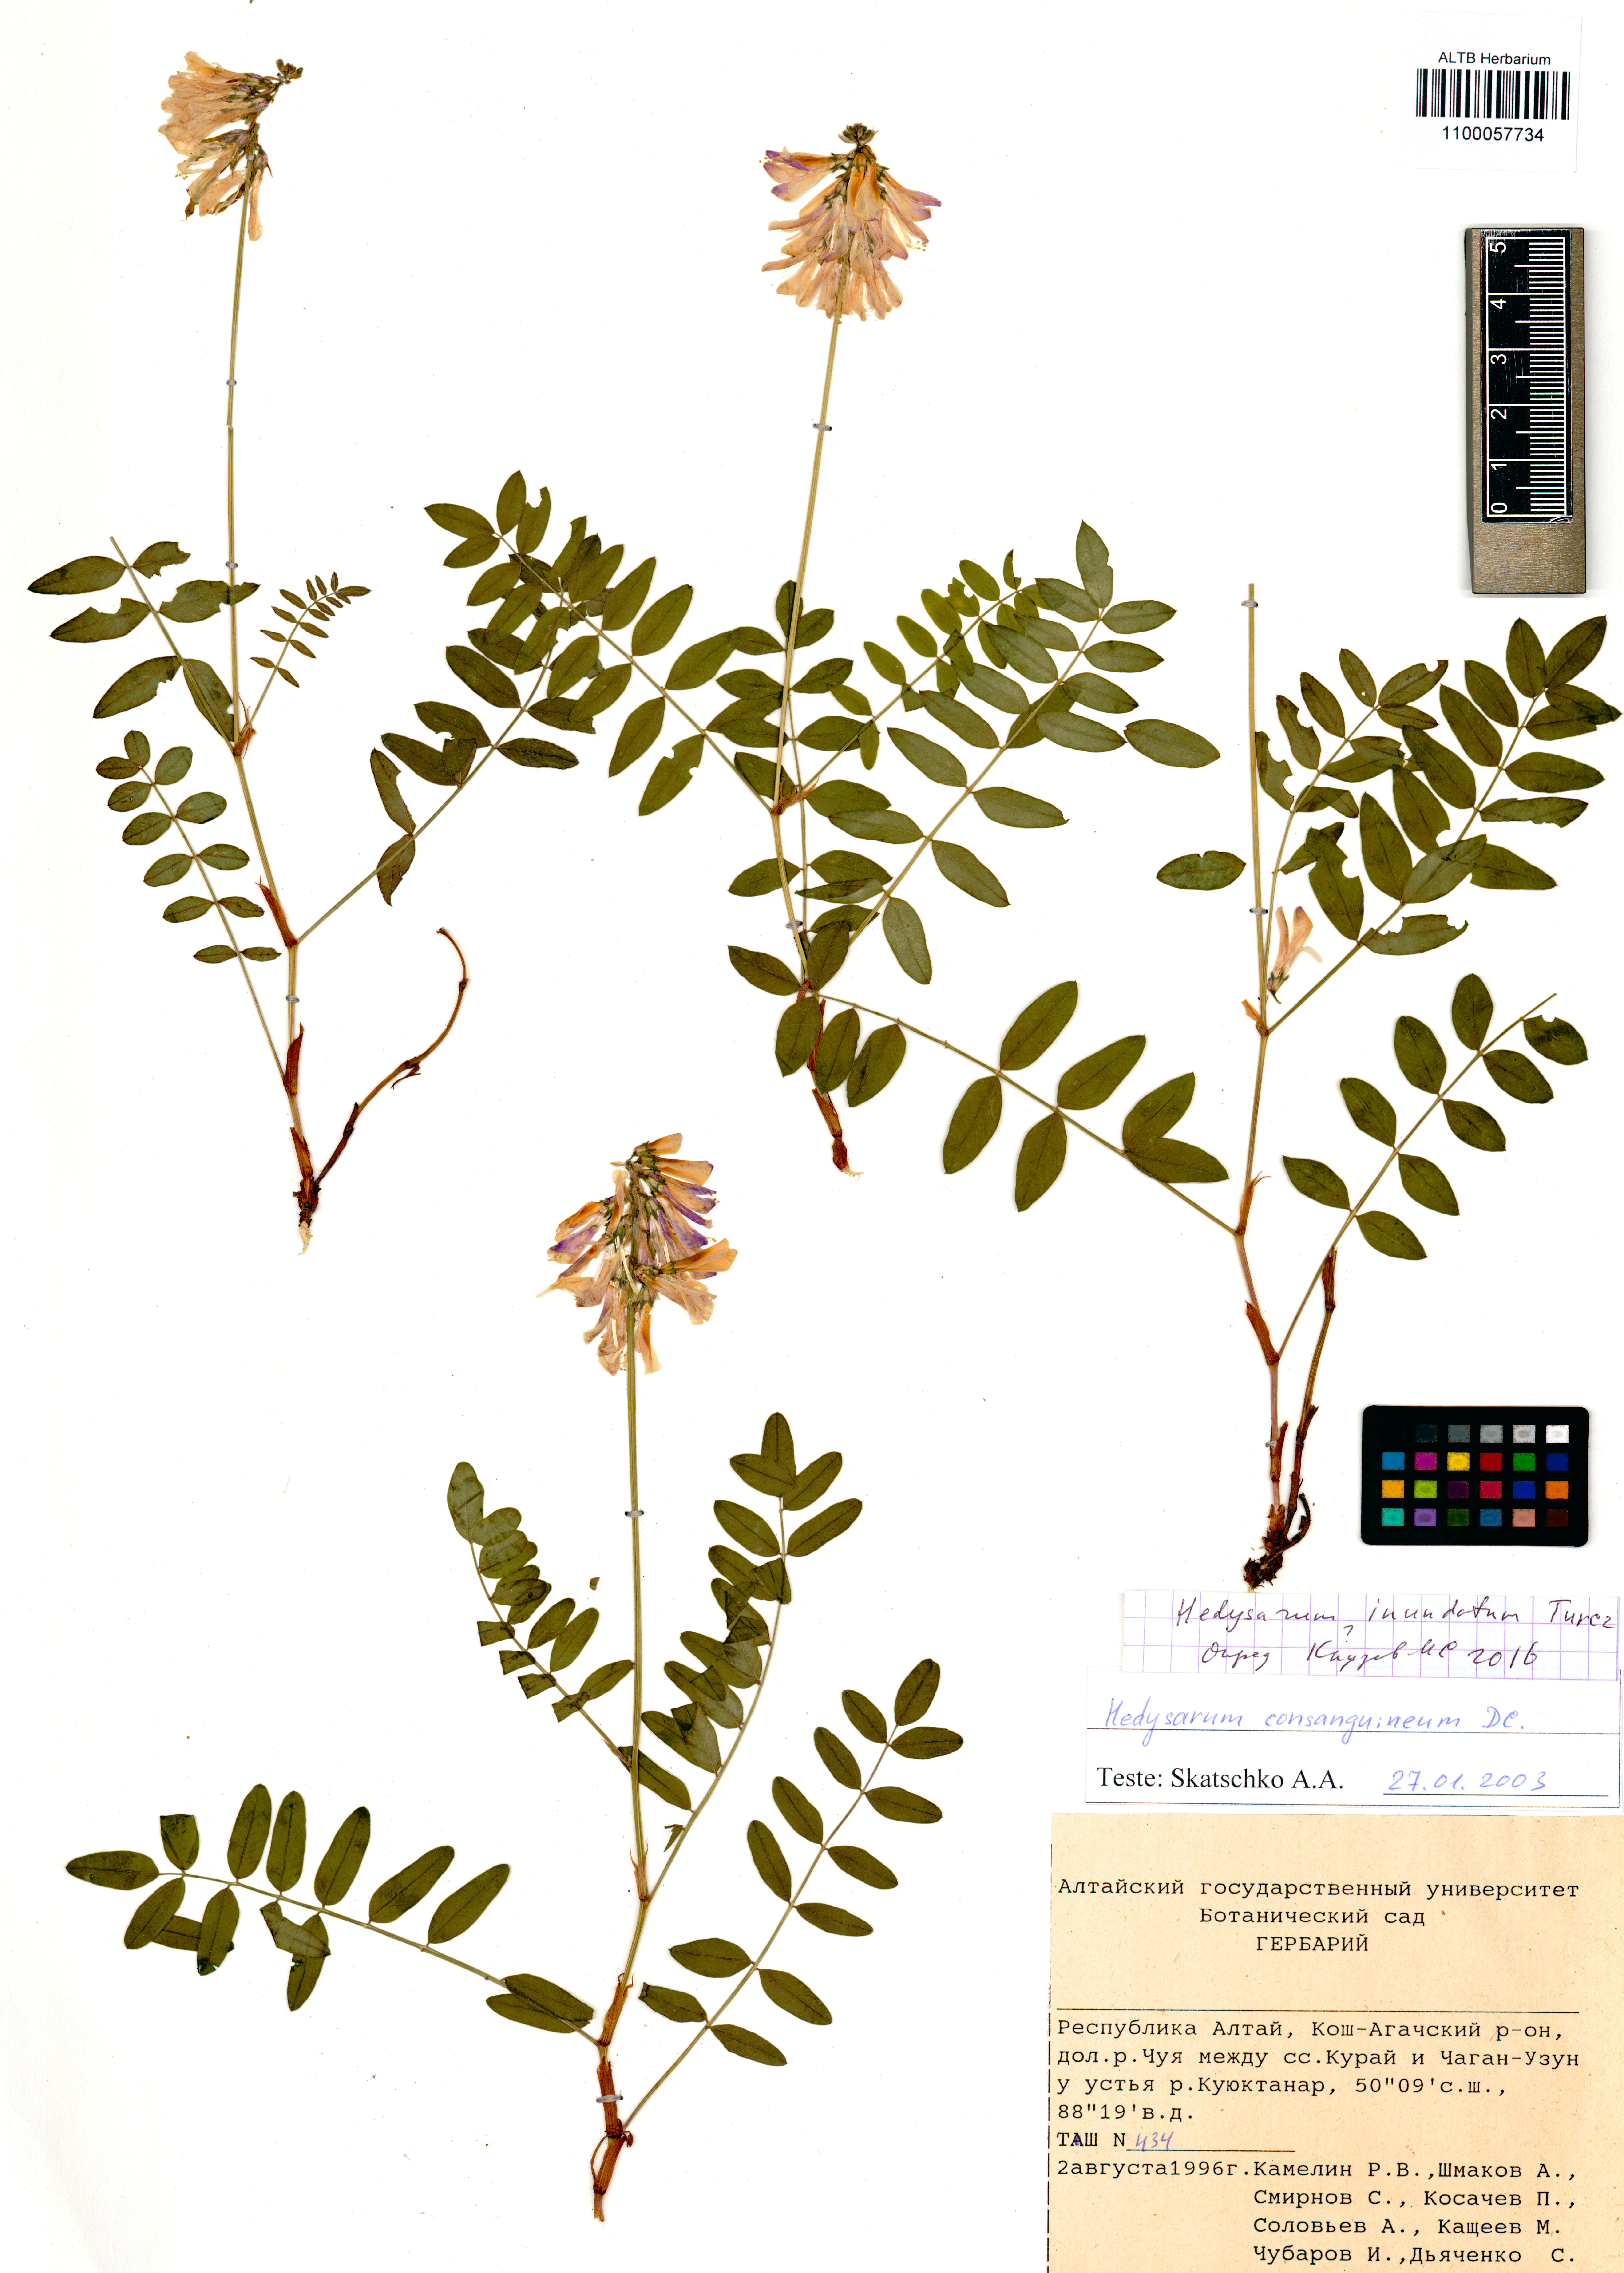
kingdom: Plantae
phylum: Tracheophyta
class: Magnoliopsida
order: Fabales
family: Fabaceae
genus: Hedysarum
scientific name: Hedysarum inundatum
